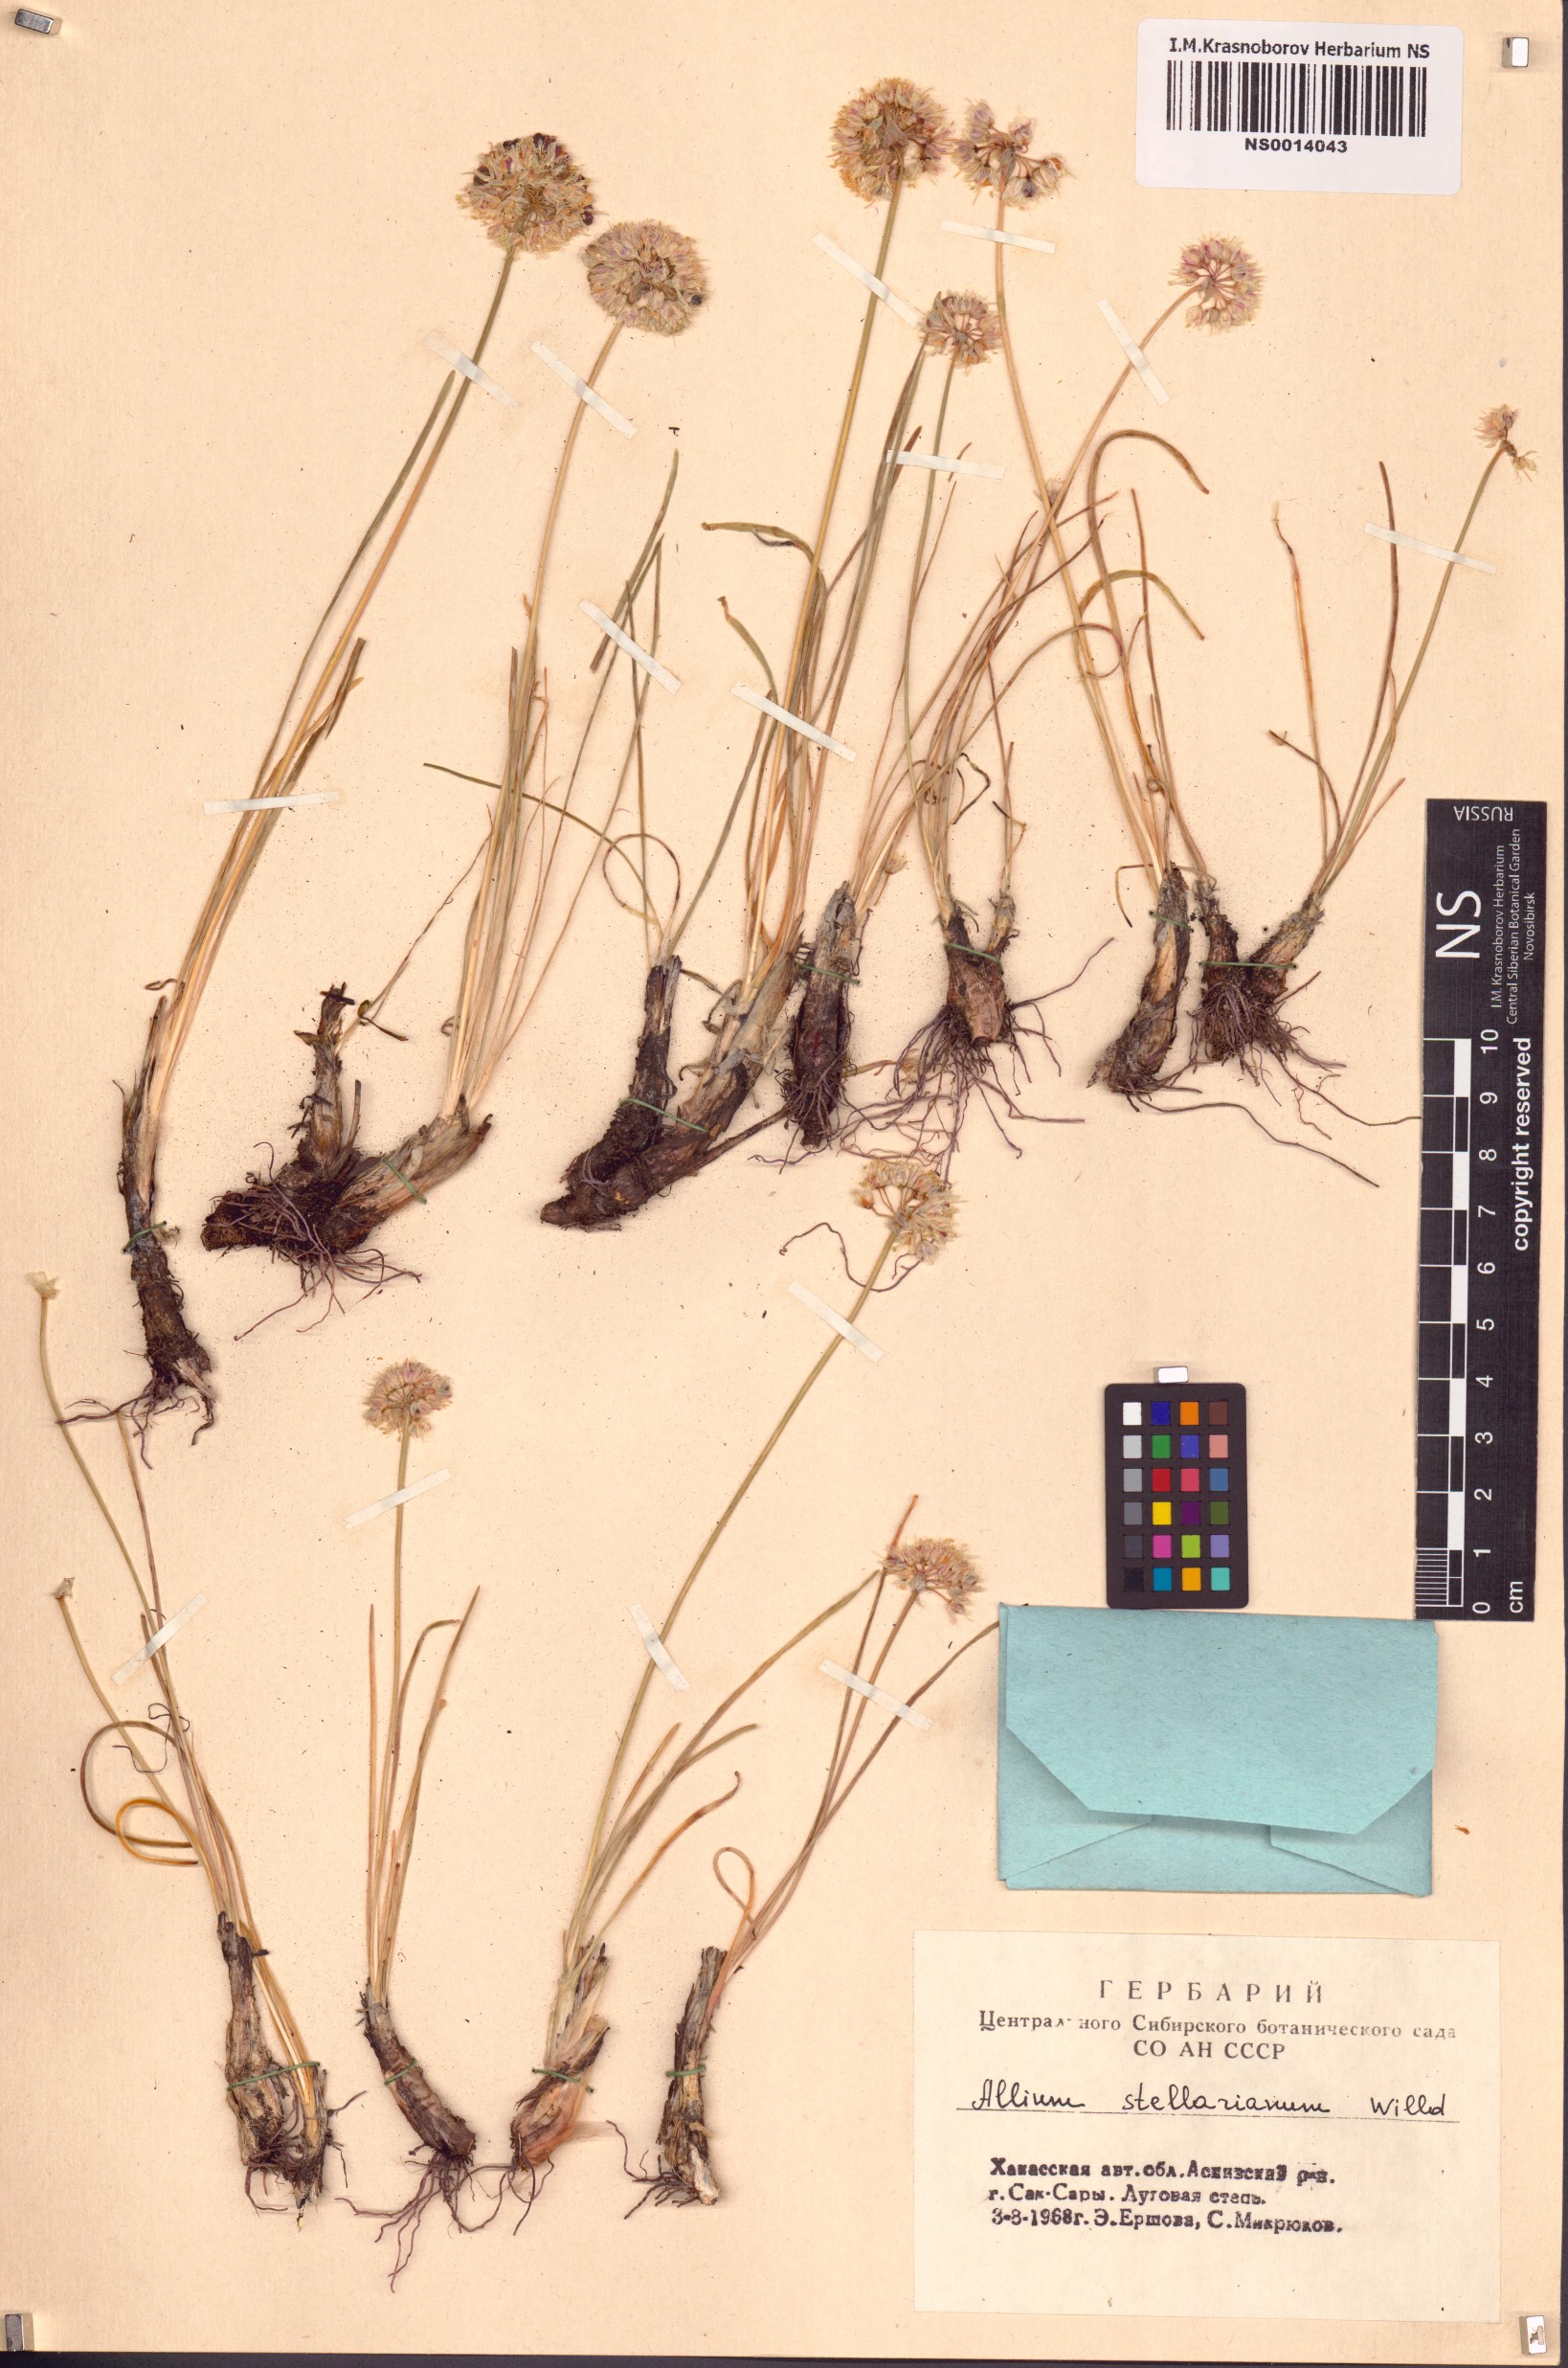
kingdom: Plantae
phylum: Tracheophyta
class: Liliopsida
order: Asparagales
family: Amaryllidaceae
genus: Allium
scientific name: Allium stellerianum
